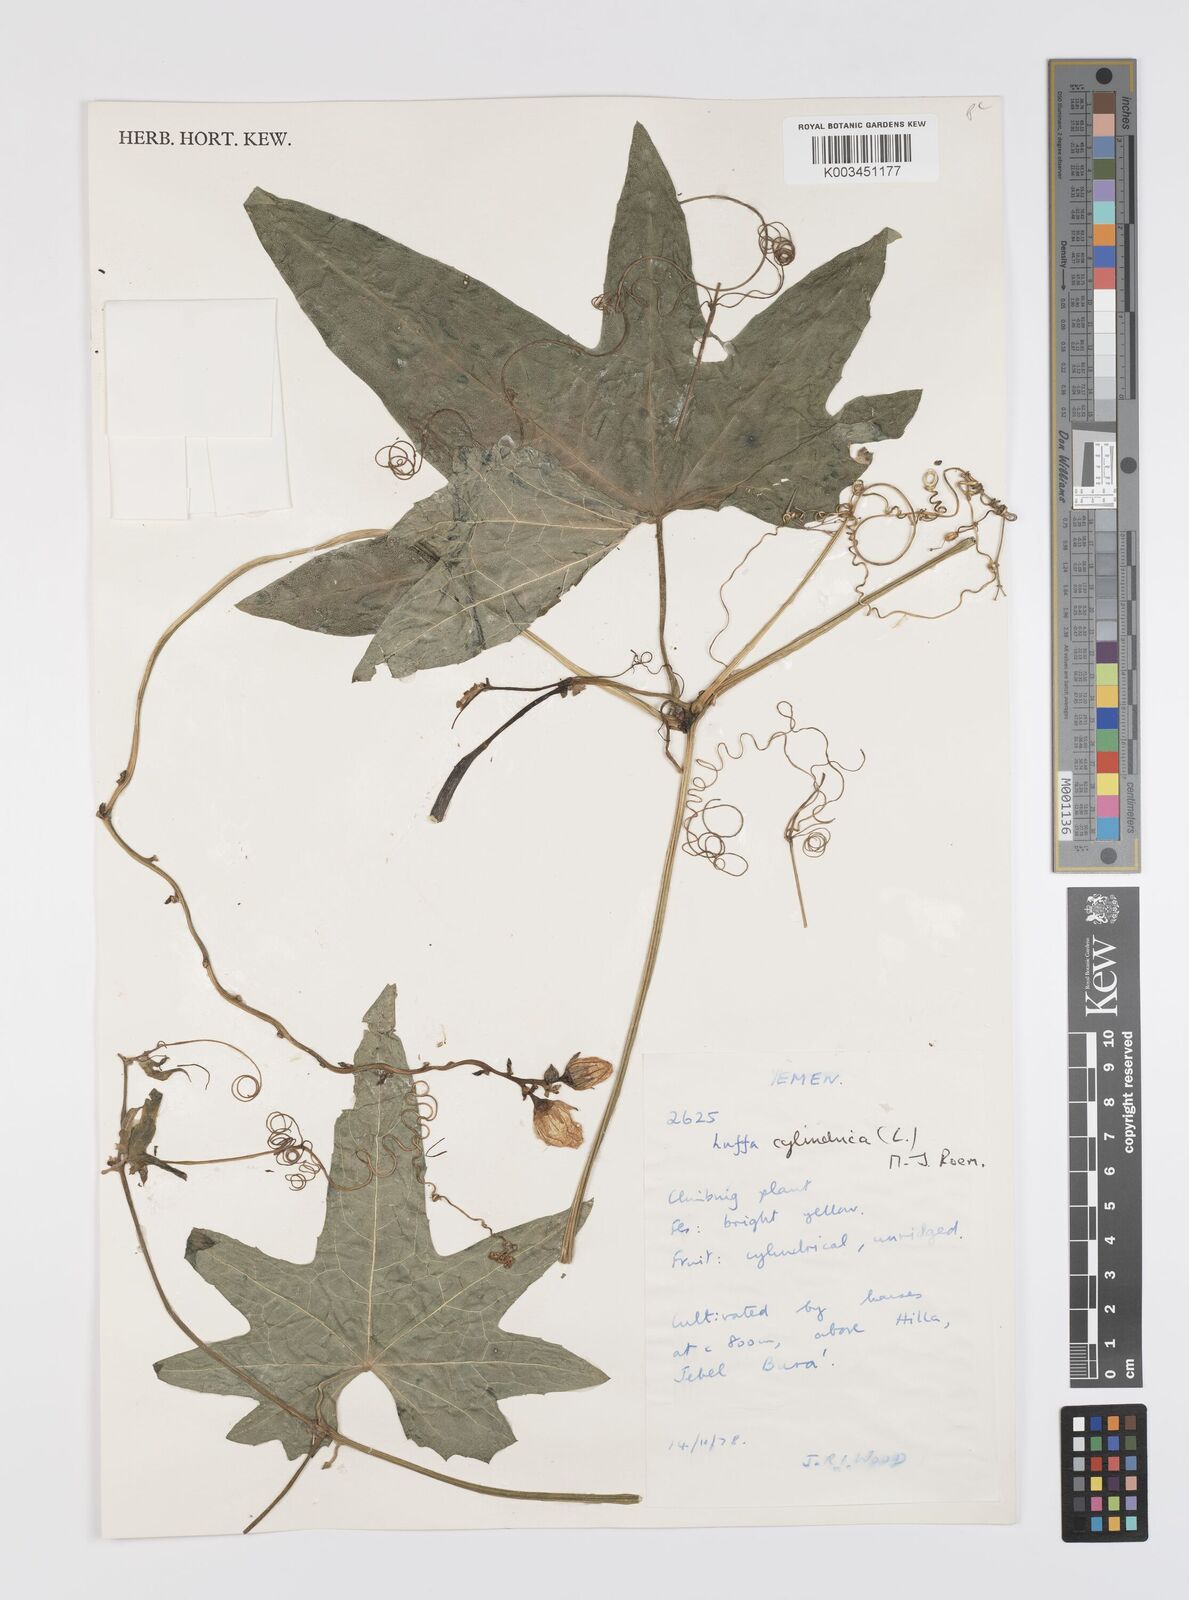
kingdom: Plantae
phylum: Tracheophyta
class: Magnoliopsida
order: Cucurbitales
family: Cucurbitaceae
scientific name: Cucurbitaceae
